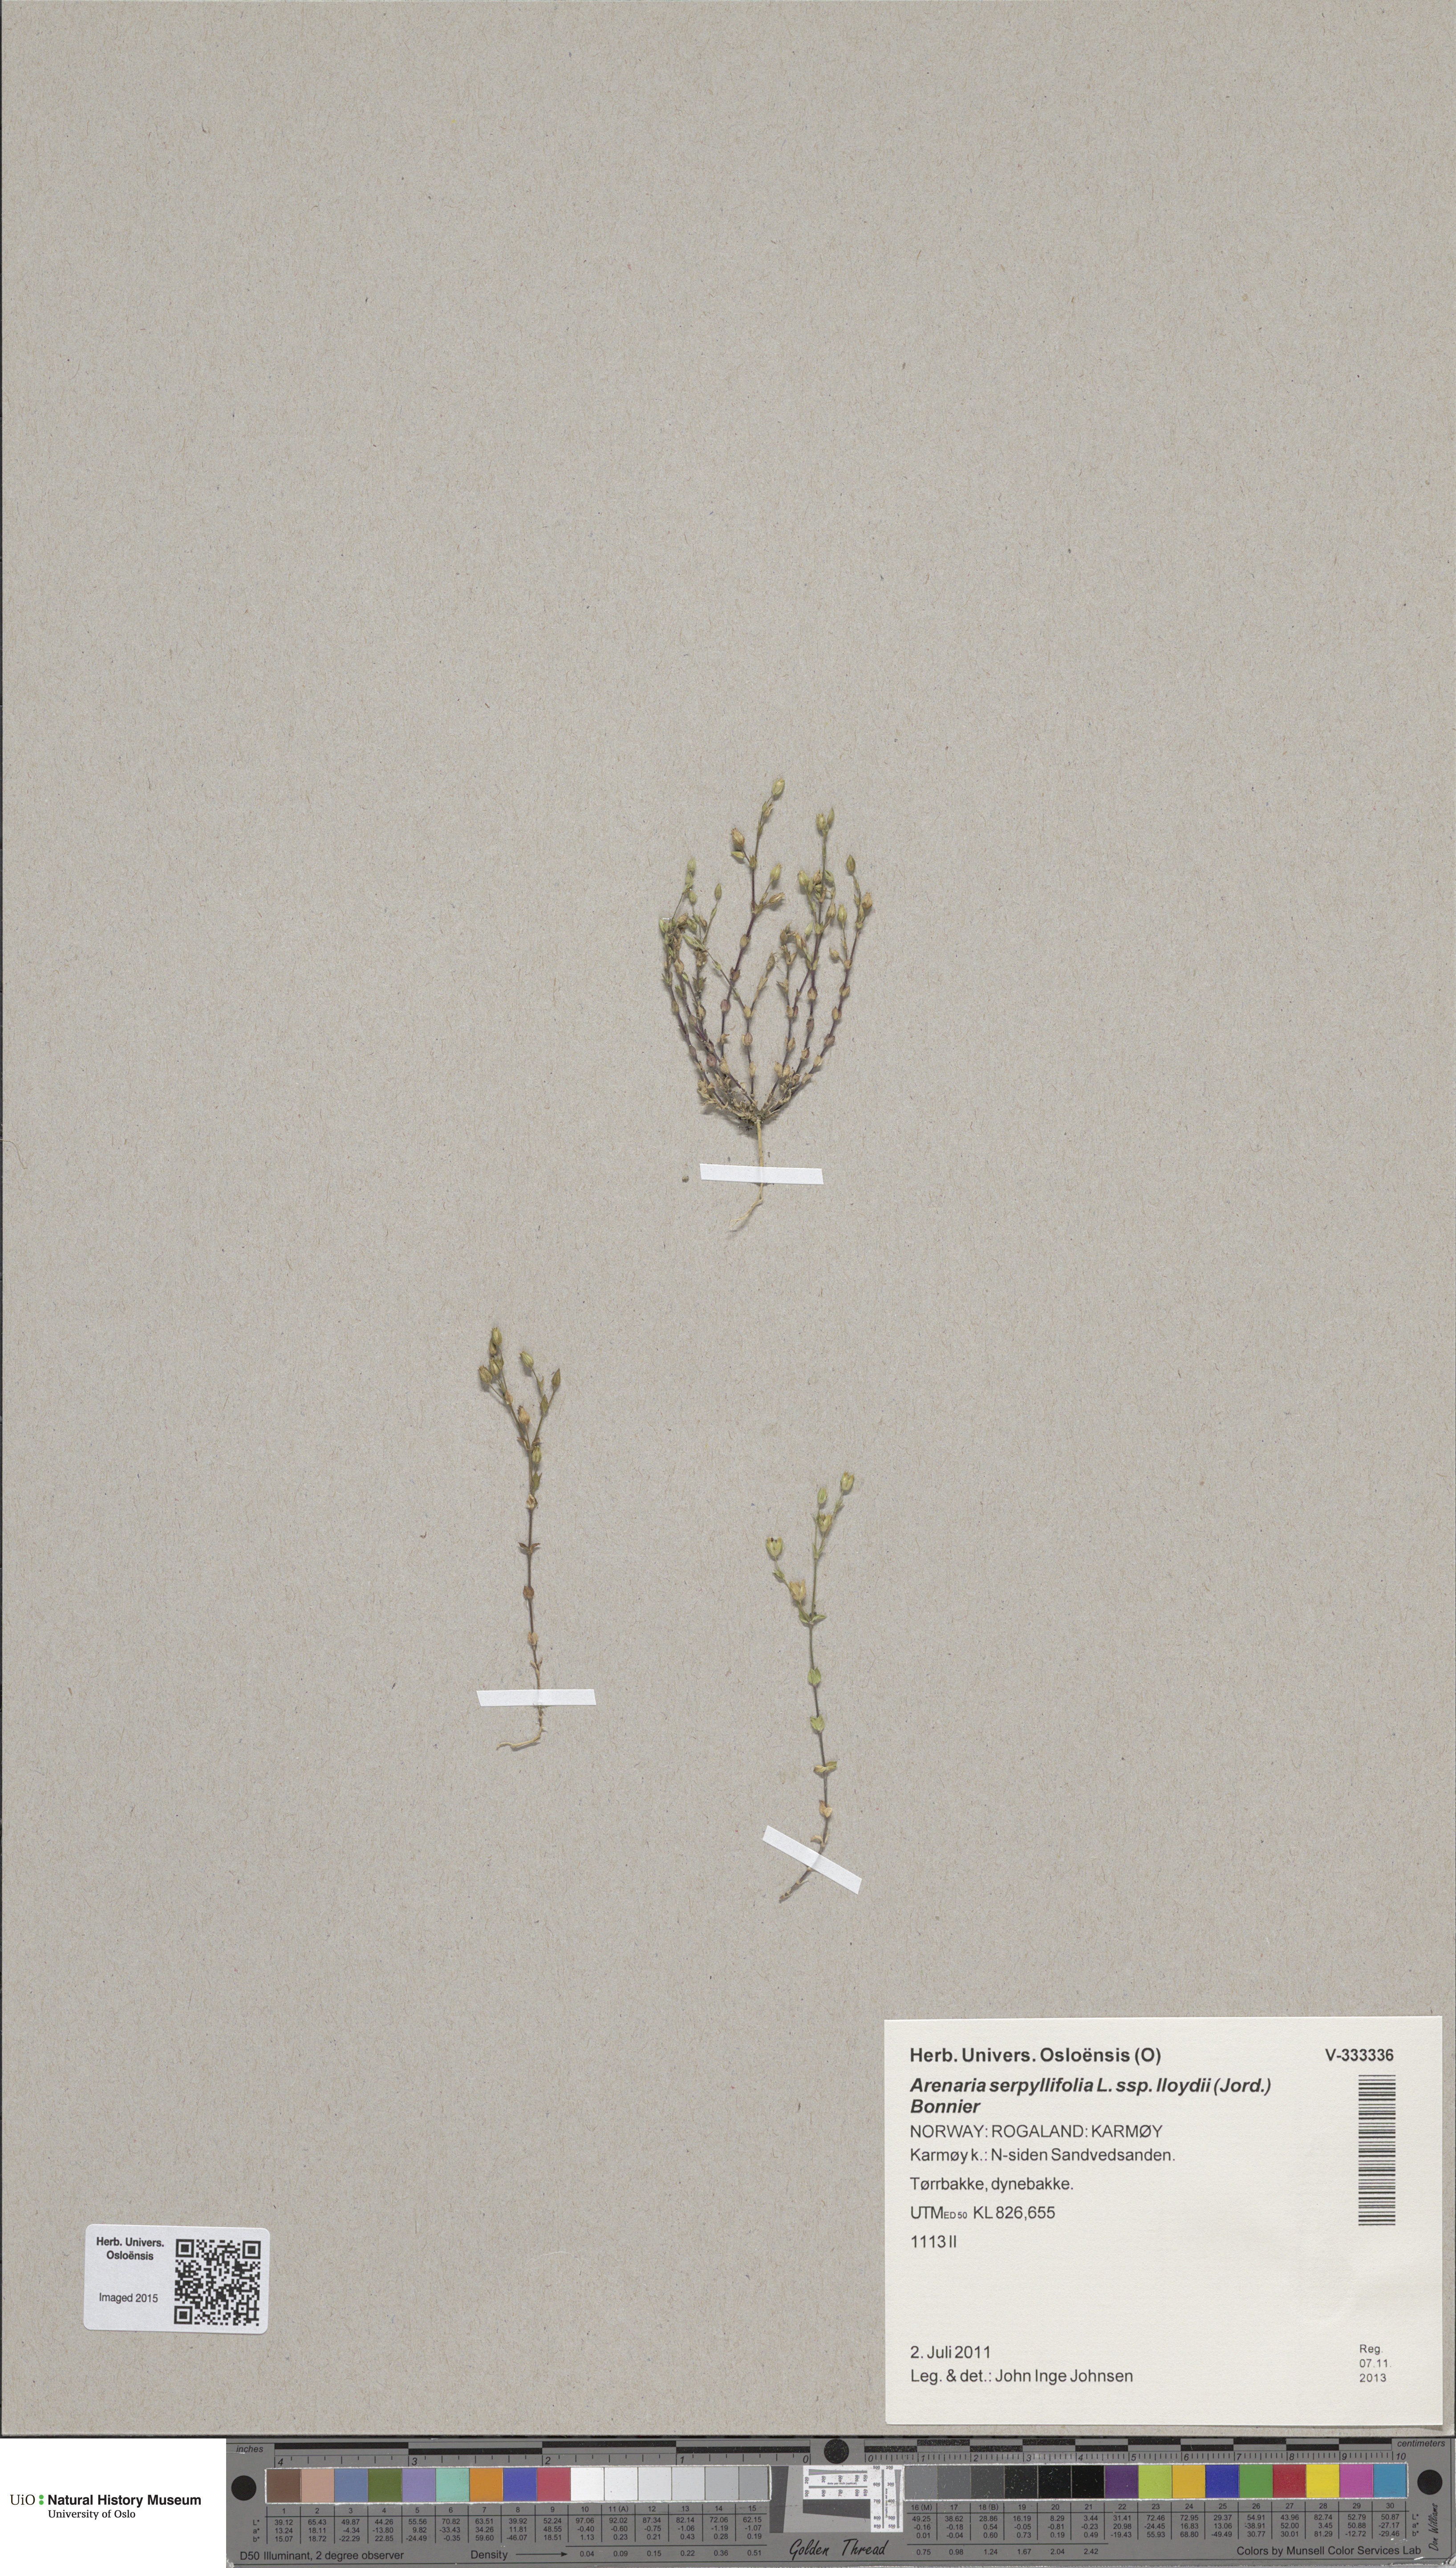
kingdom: Plantae
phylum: Tracheophyta
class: Magnoliopsida
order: Caryophyllales
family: Caryophyllaceae
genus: Arenaria
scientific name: Arenaria serpyllifolia
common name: Thyme-leaved sandwort
